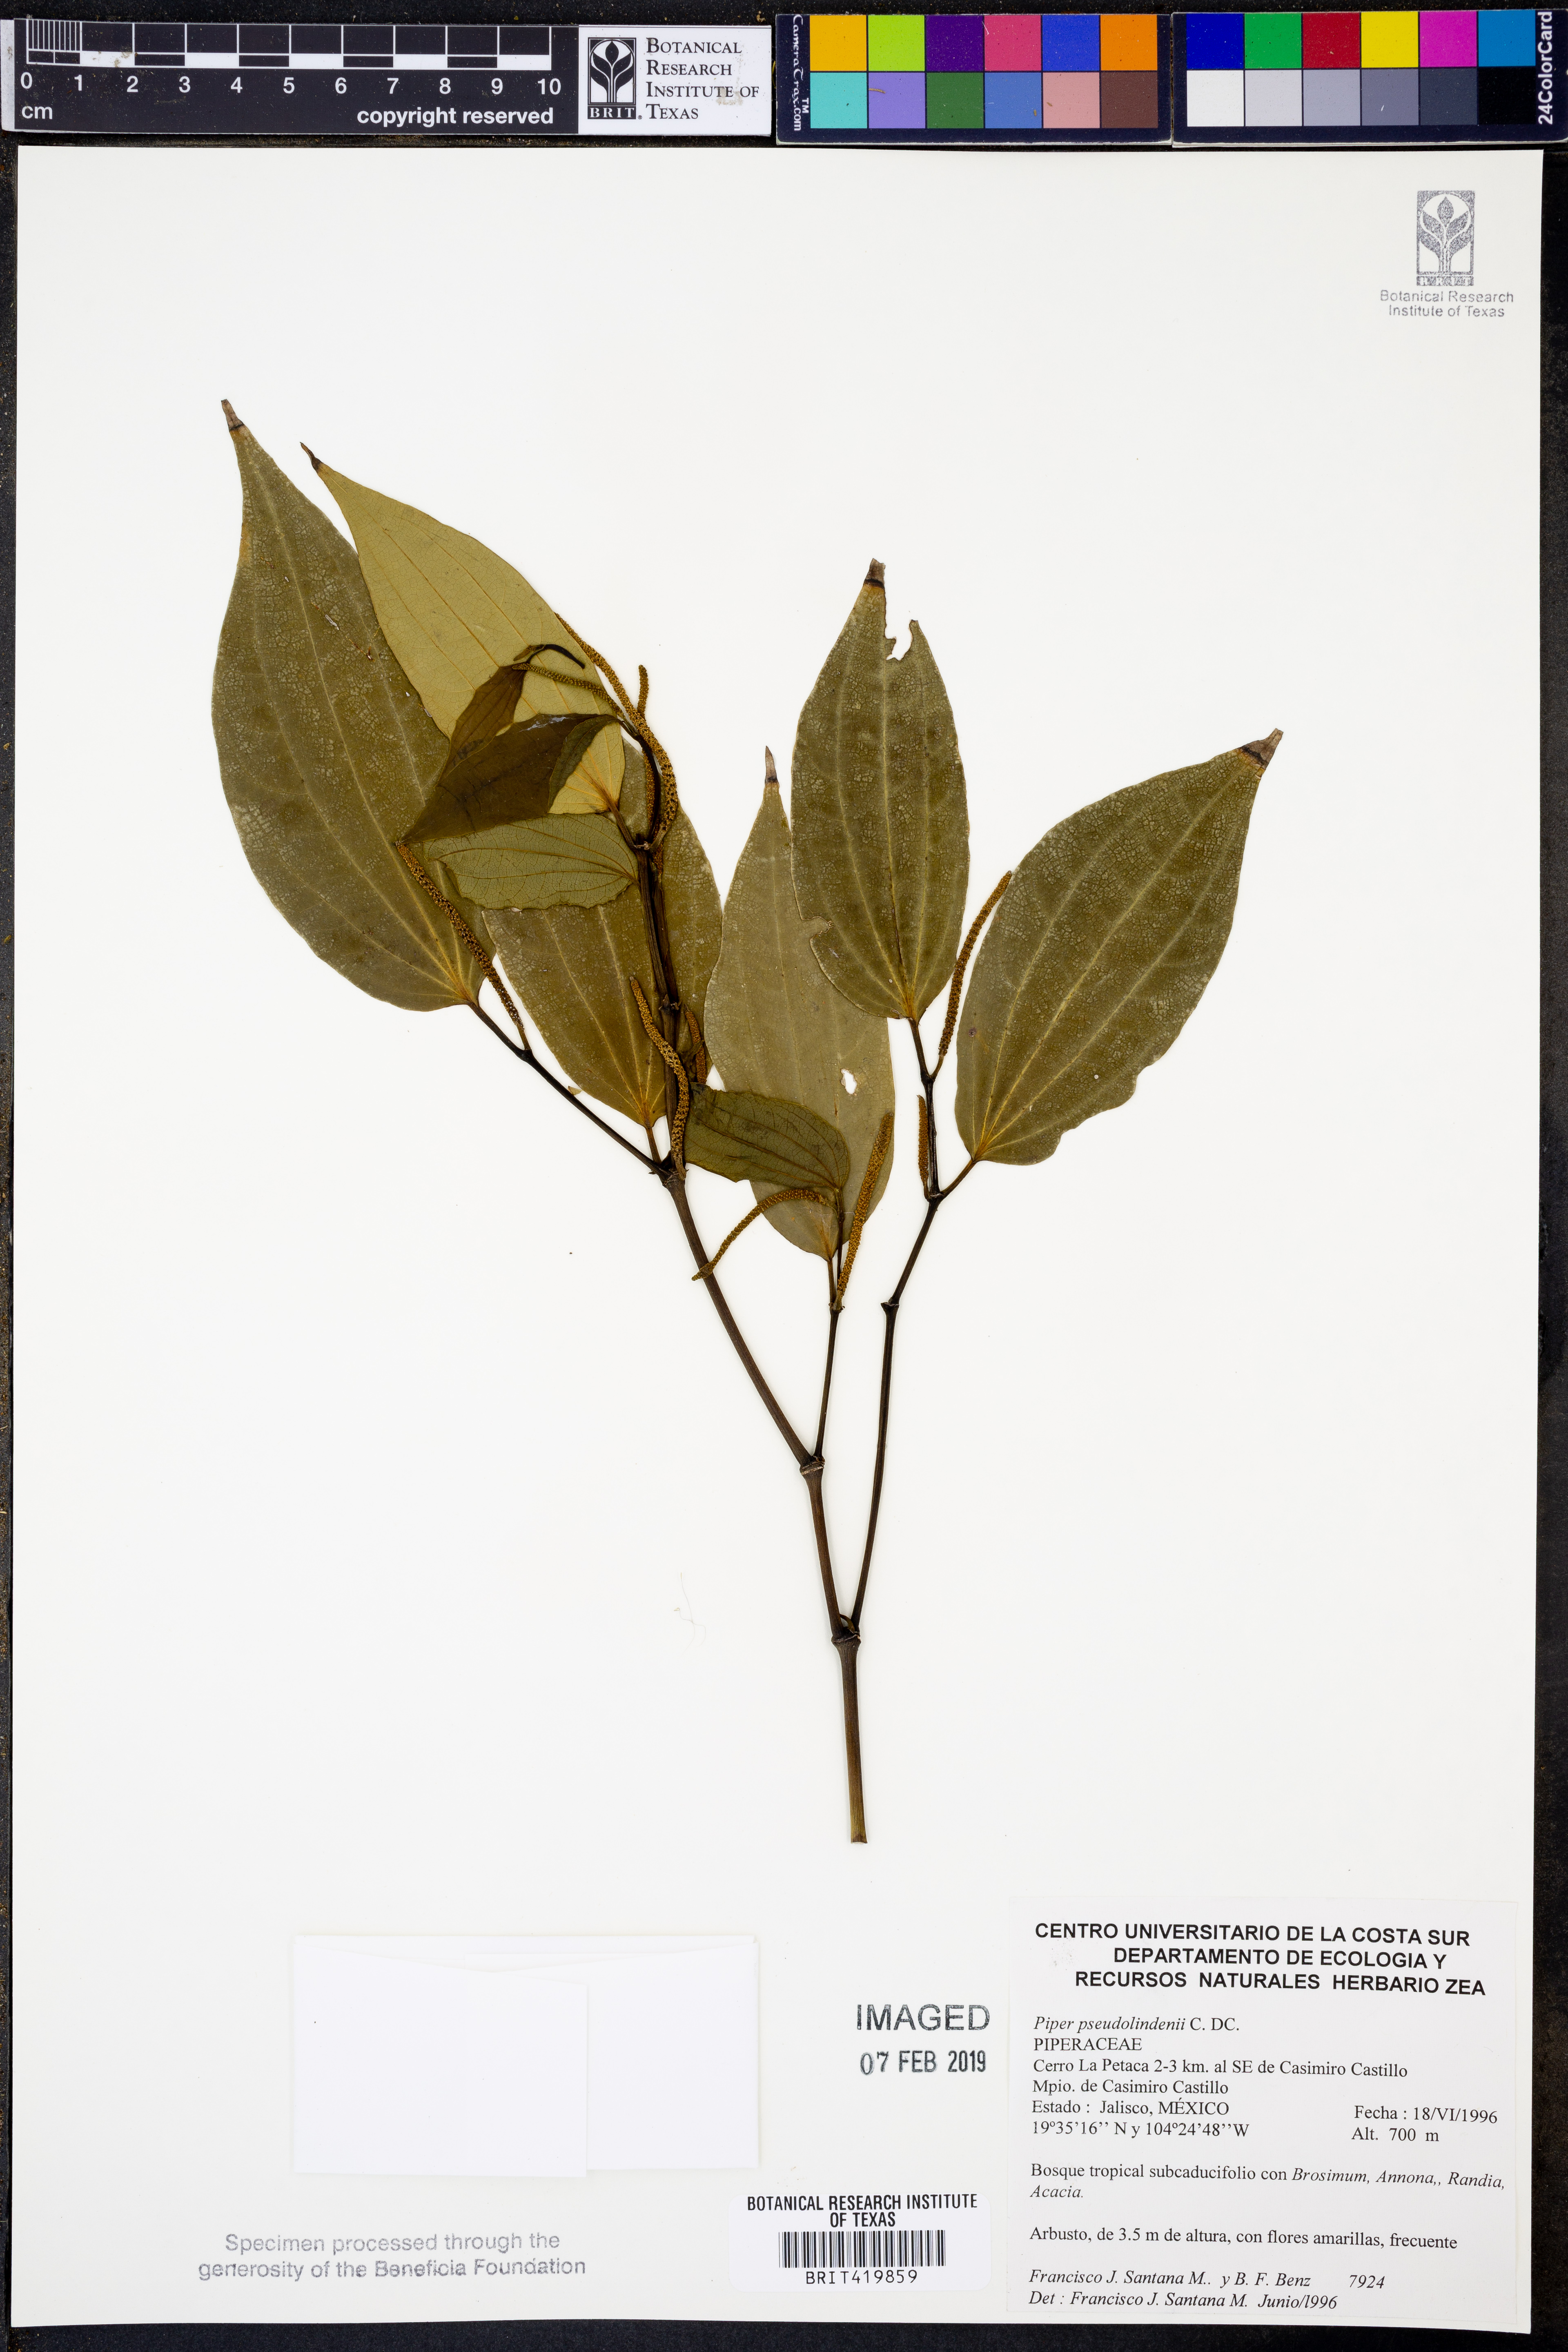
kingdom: Plantae
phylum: Tracheophyta
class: Magnoliopsida
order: Piperales
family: Piperaceae
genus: Piper
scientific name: Piper pseudolindenii
